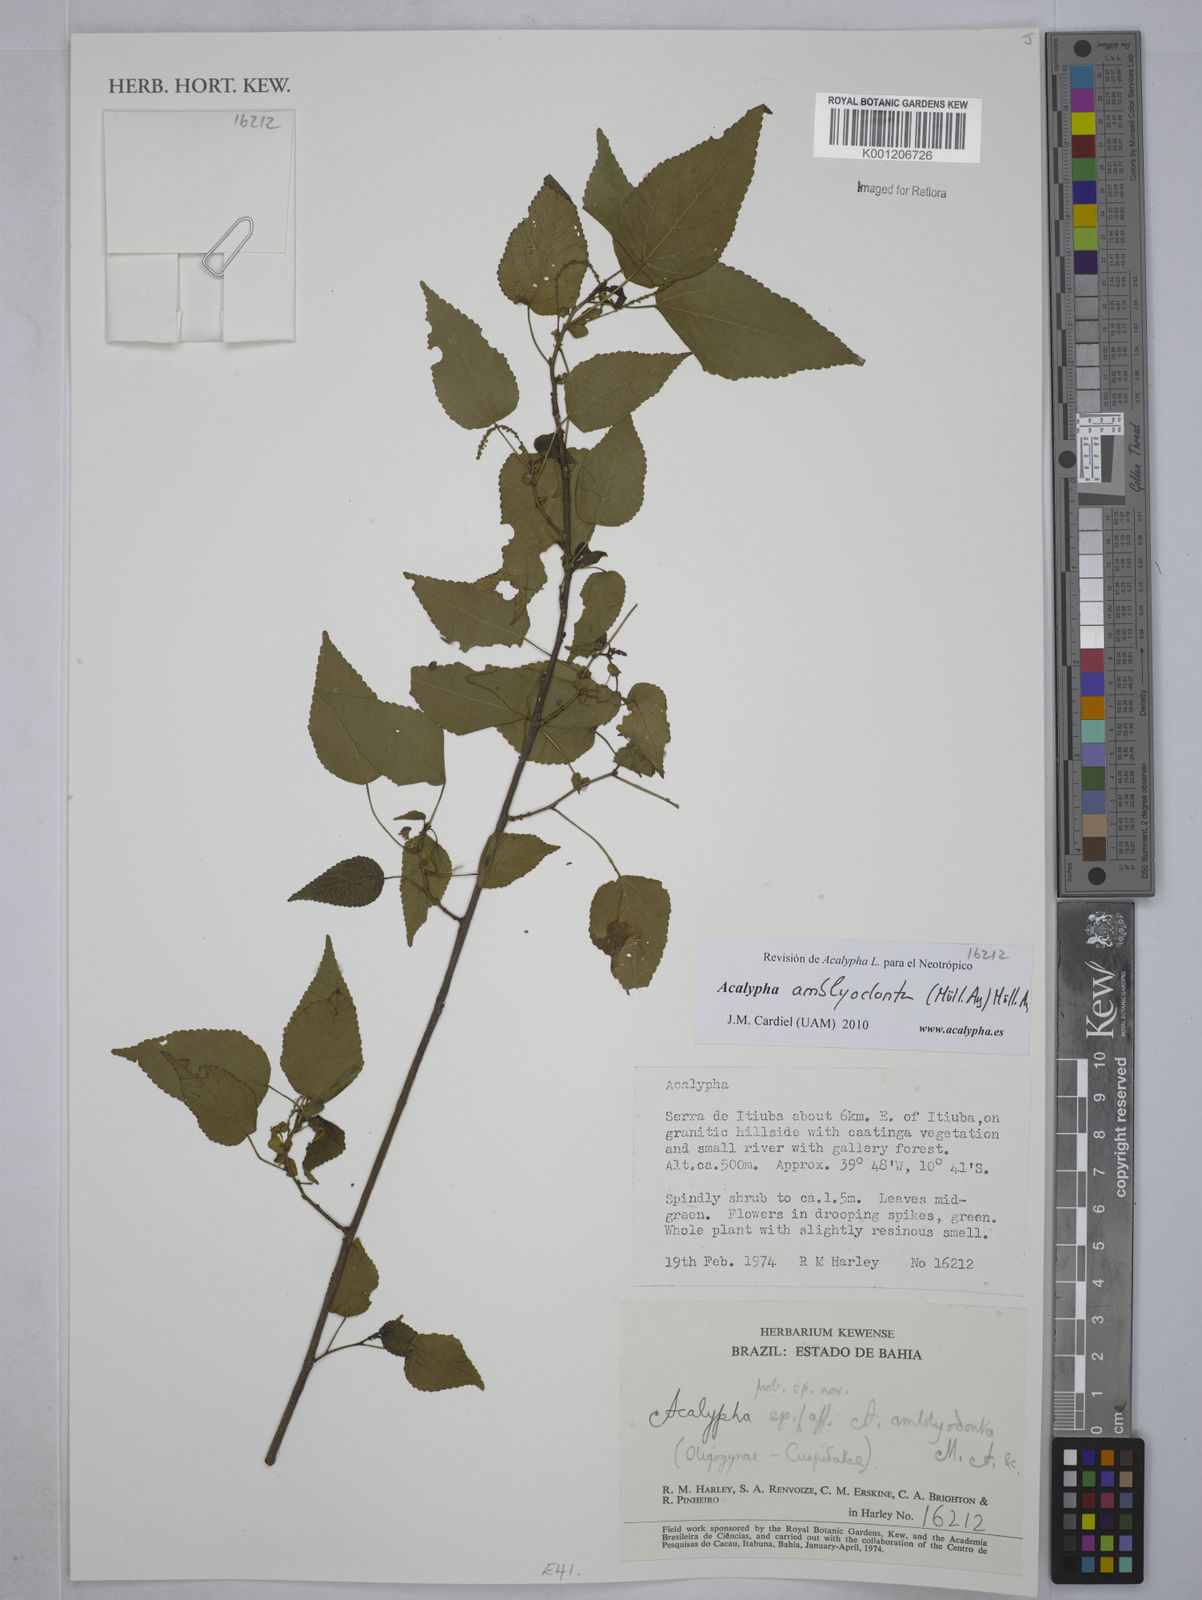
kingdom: Plantae
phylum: Tracheophyta
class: Magnoliopsida
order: Malpighiales
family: Euphorbiaceae
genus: Acalypha
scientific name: Acalypha
